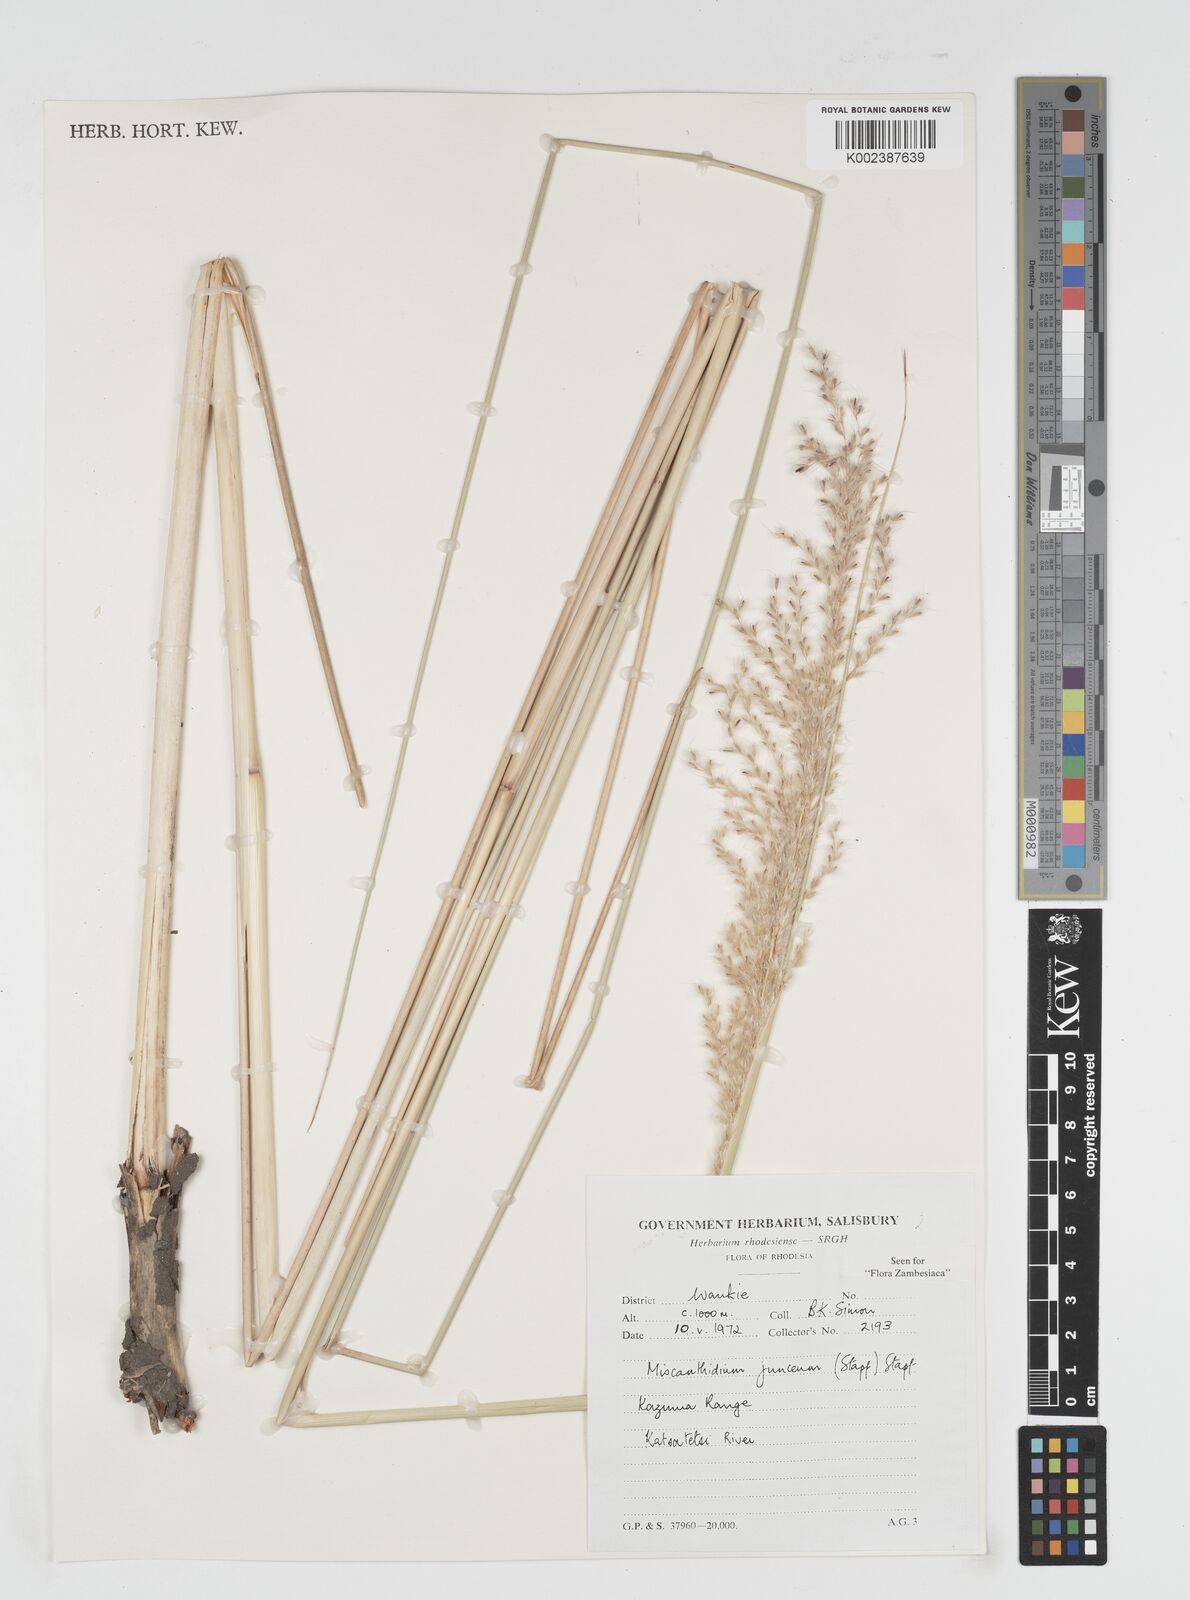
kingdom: Plantae
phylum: Tracheophyta
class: Liliopsida
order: Poales
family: Poaceae
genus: Miscanthidium
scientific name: Miscanthidium junceum
